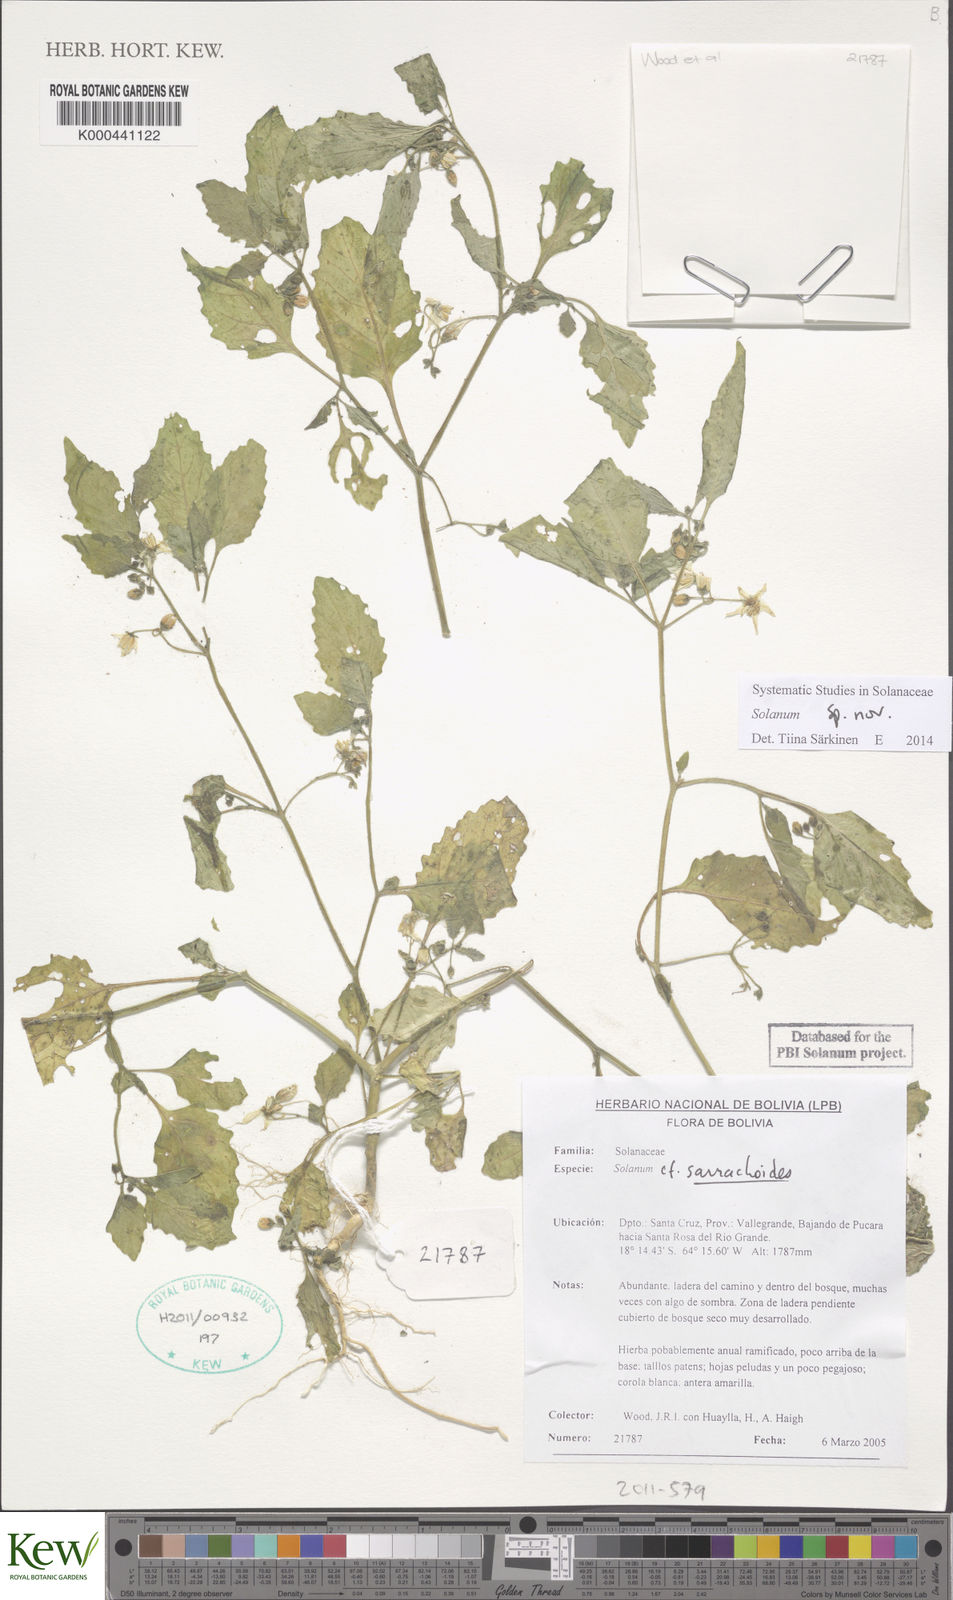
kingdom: Plantae
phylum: Tracheophyta
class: Magnoliopsida
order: Solanales
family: Solanaceae
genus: Solanum
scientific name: Solanum
